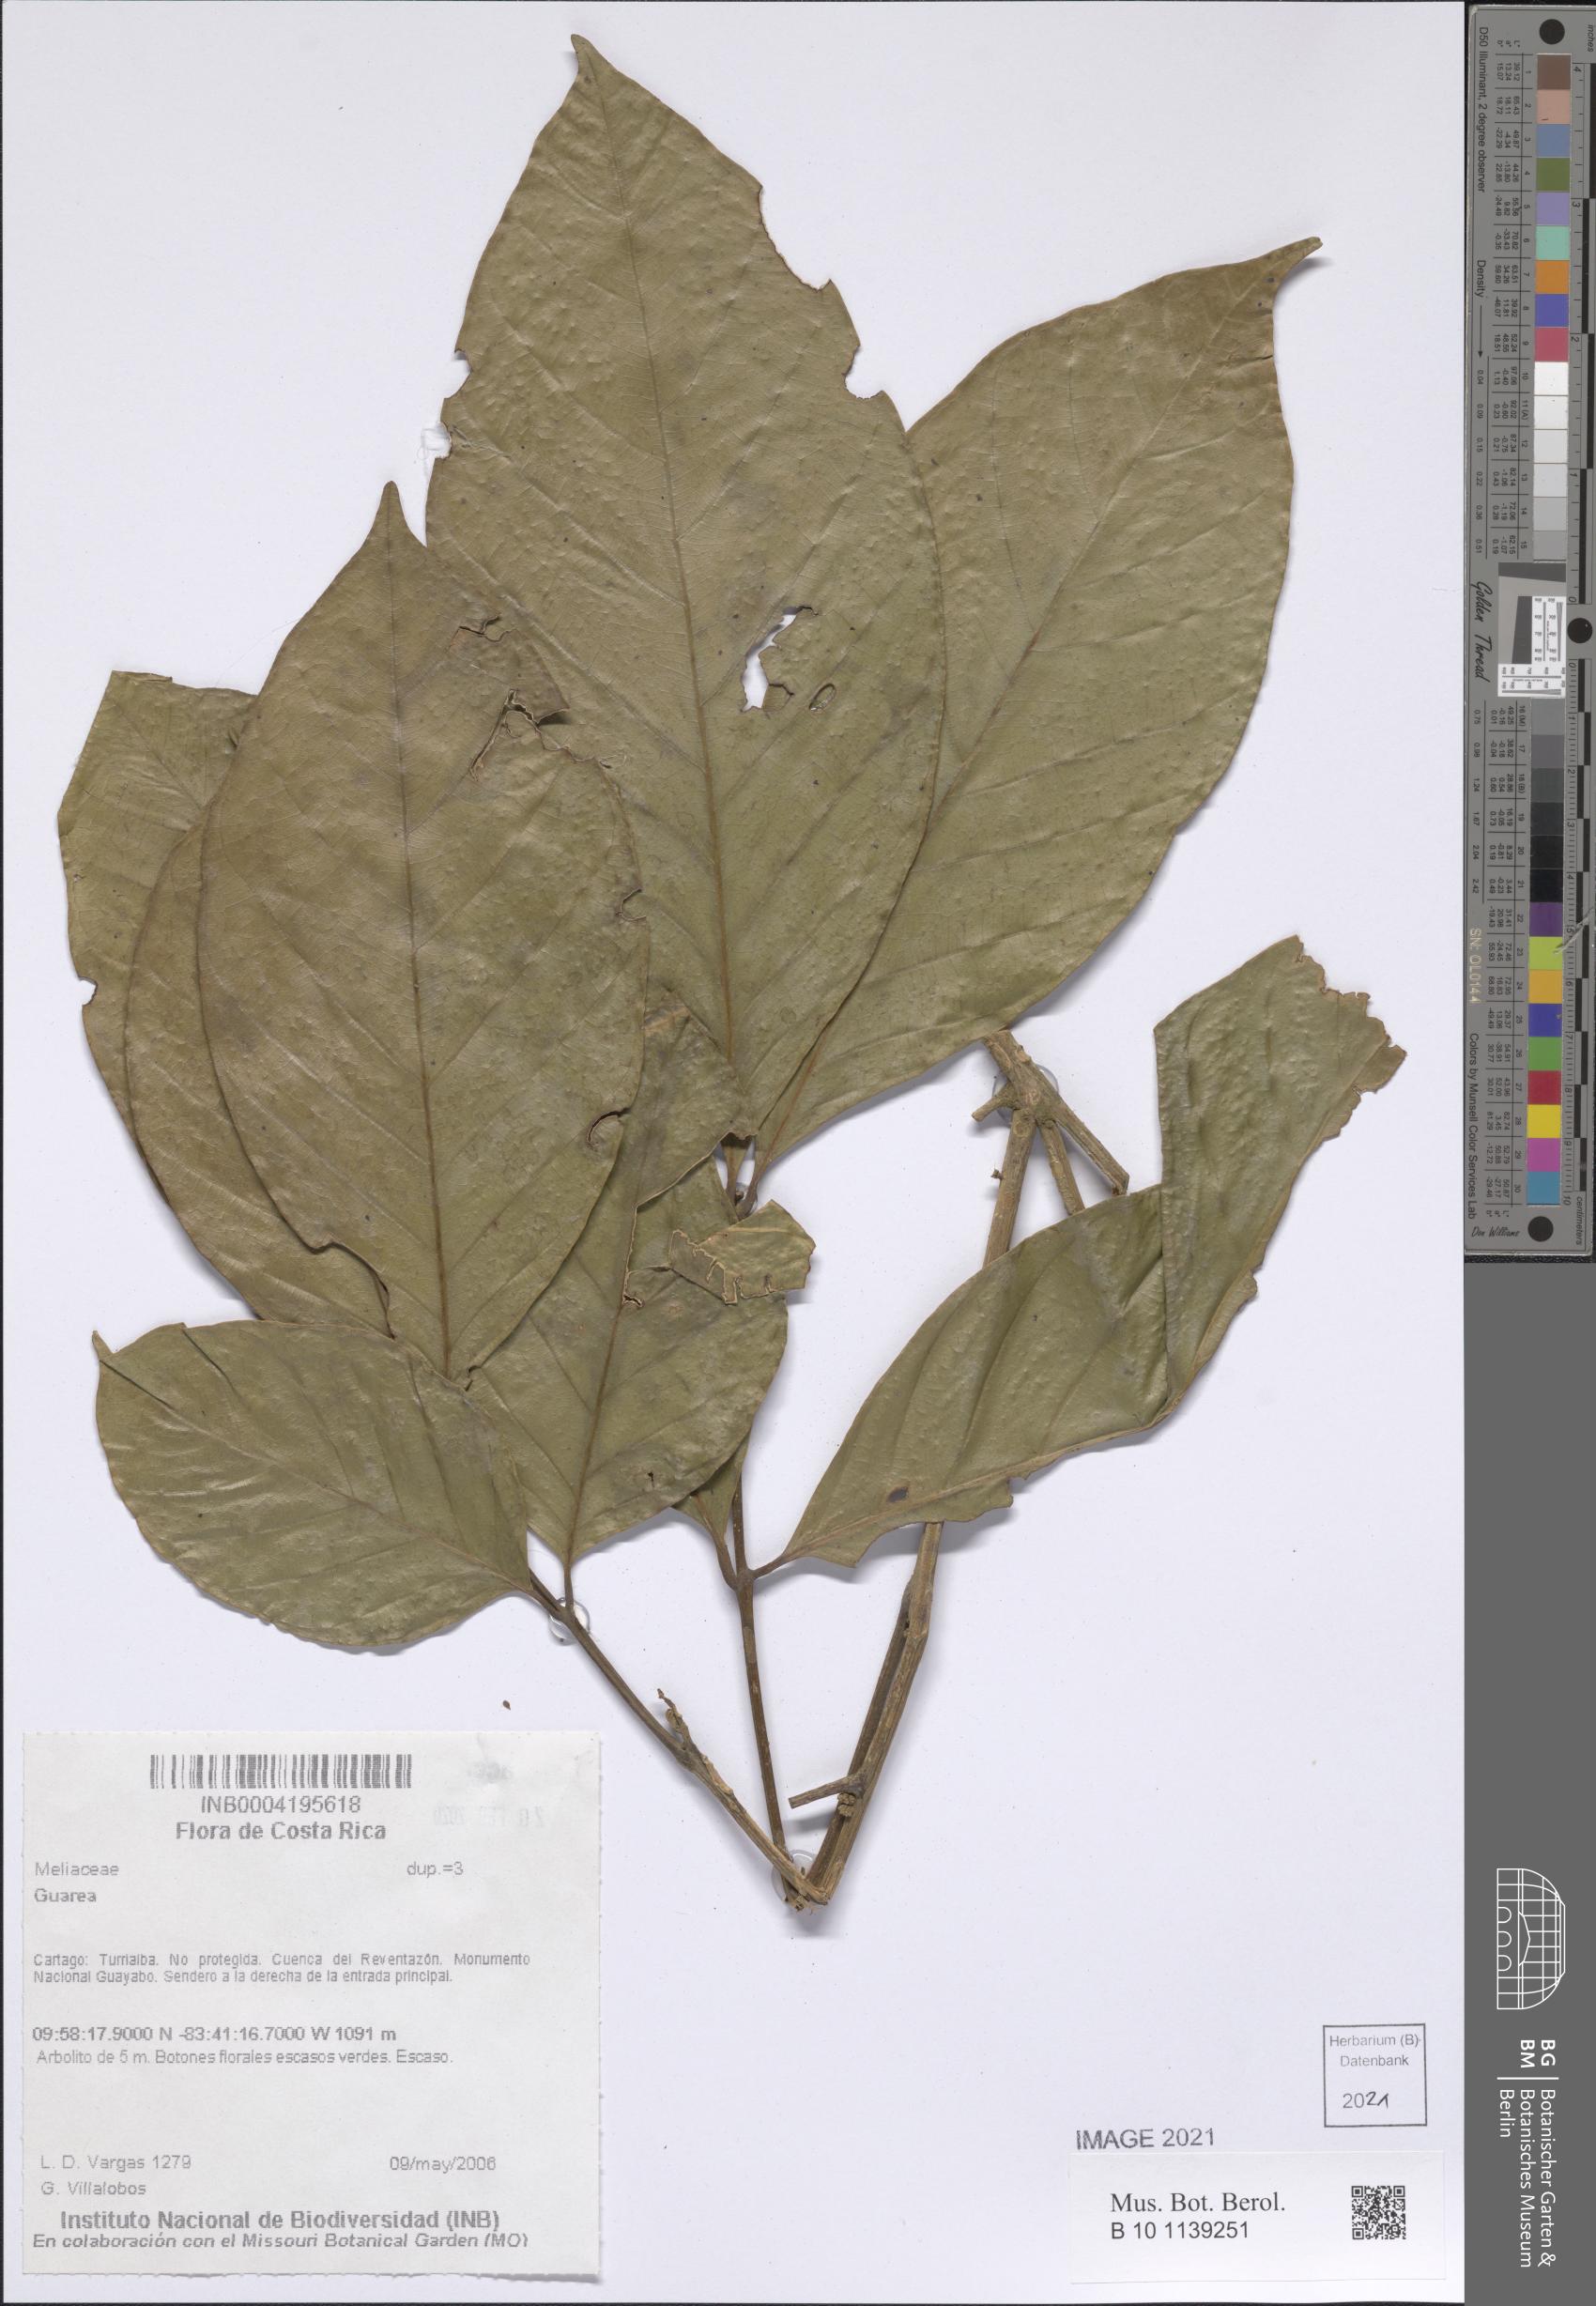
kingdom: Plantae
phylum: Tracheophyta
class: Magnoliopsida
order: Sapindales
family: Meliaceae
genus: Guarea
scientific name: Guarea
